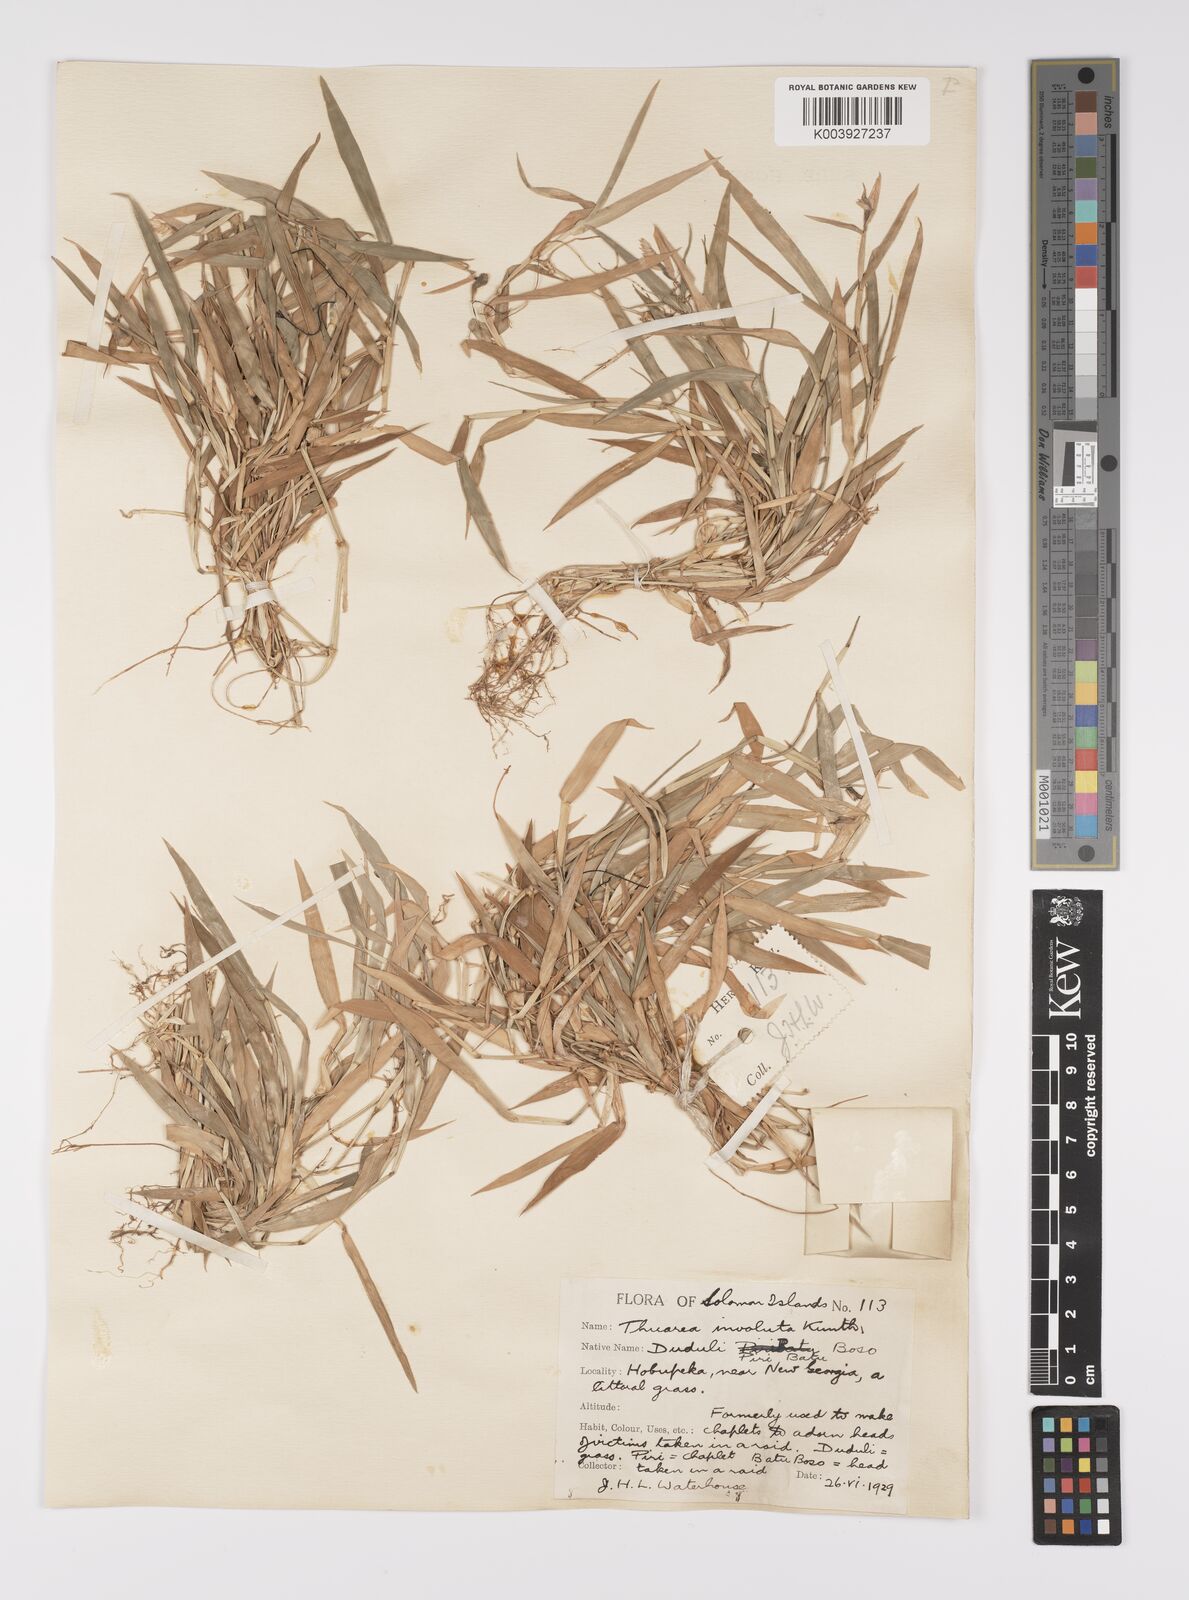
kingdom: Plantae
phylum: Tracheophyta
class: Liliopsida
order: Poales
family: Poaceae
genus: Thuarea
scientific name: Thuarea involuta
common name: Tropical beach grass
